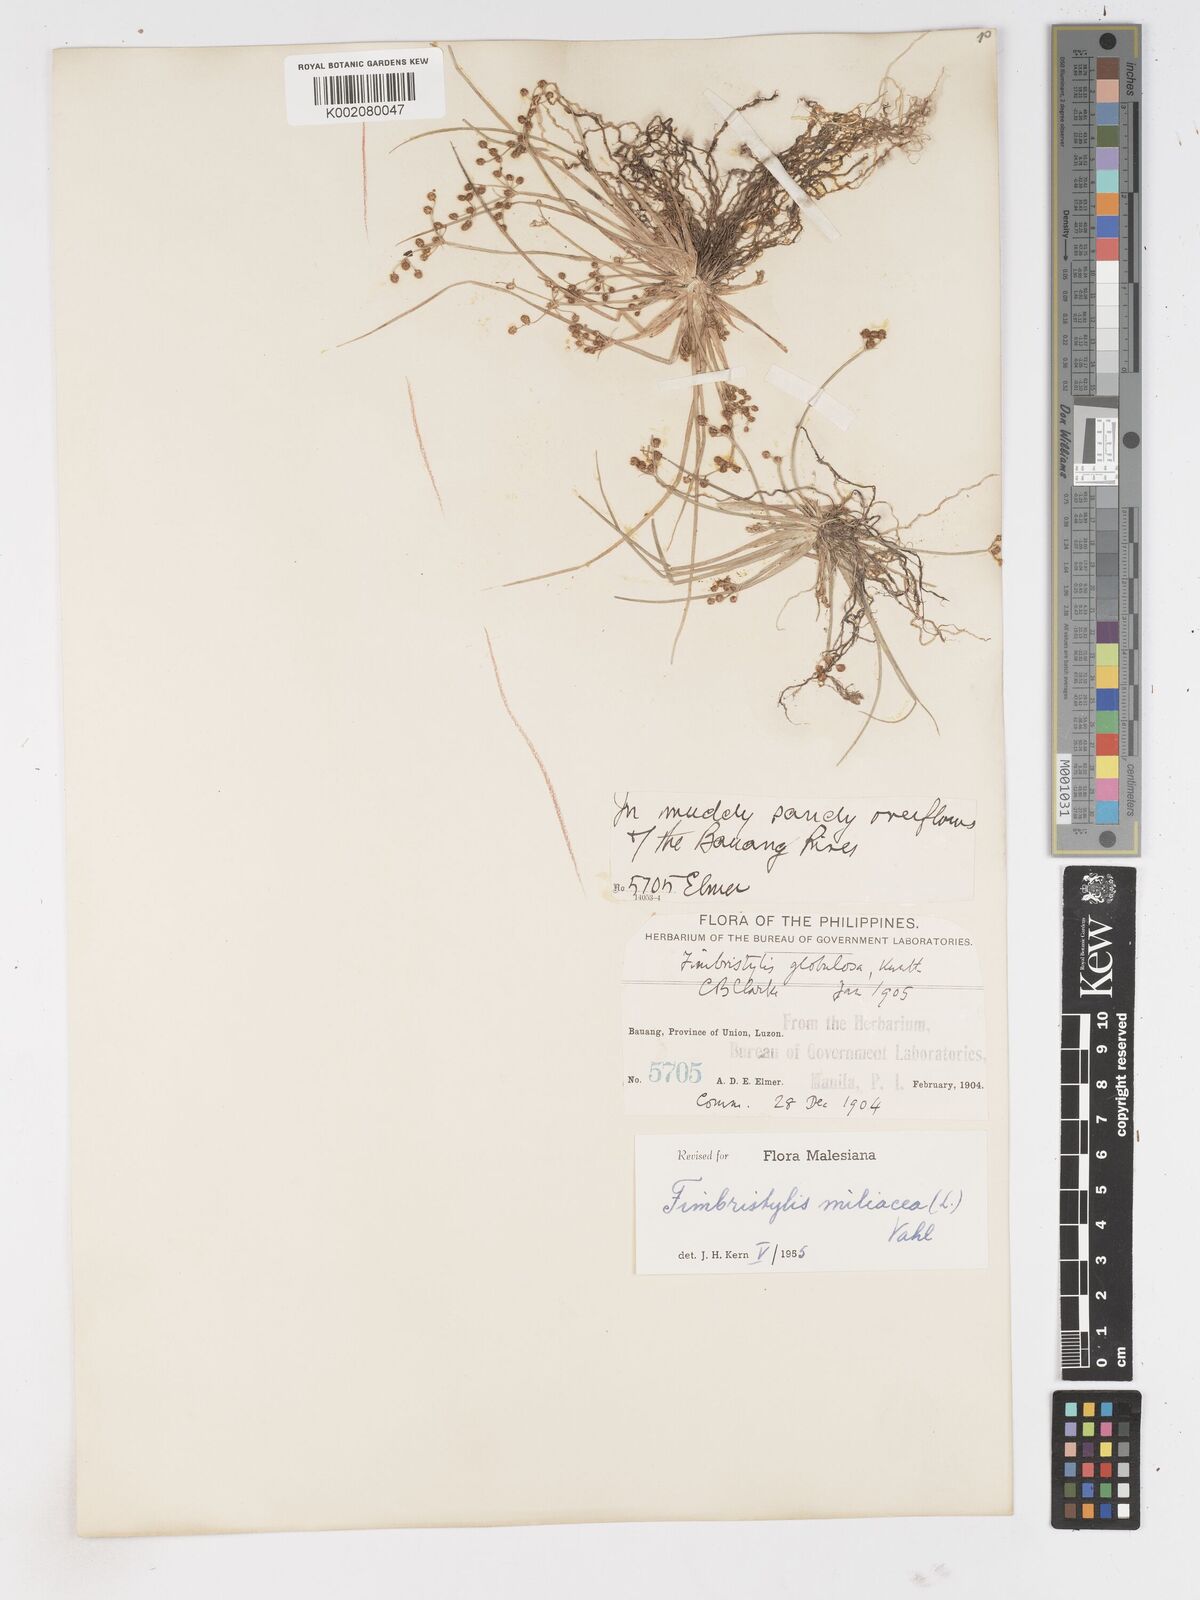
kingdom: Plantae
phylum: Tracheophyta
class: Liliopsida
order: Poales
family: Cyperaceae
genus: Fimbristylis
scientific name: Fimbristylis littoralis
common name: Fimbry
